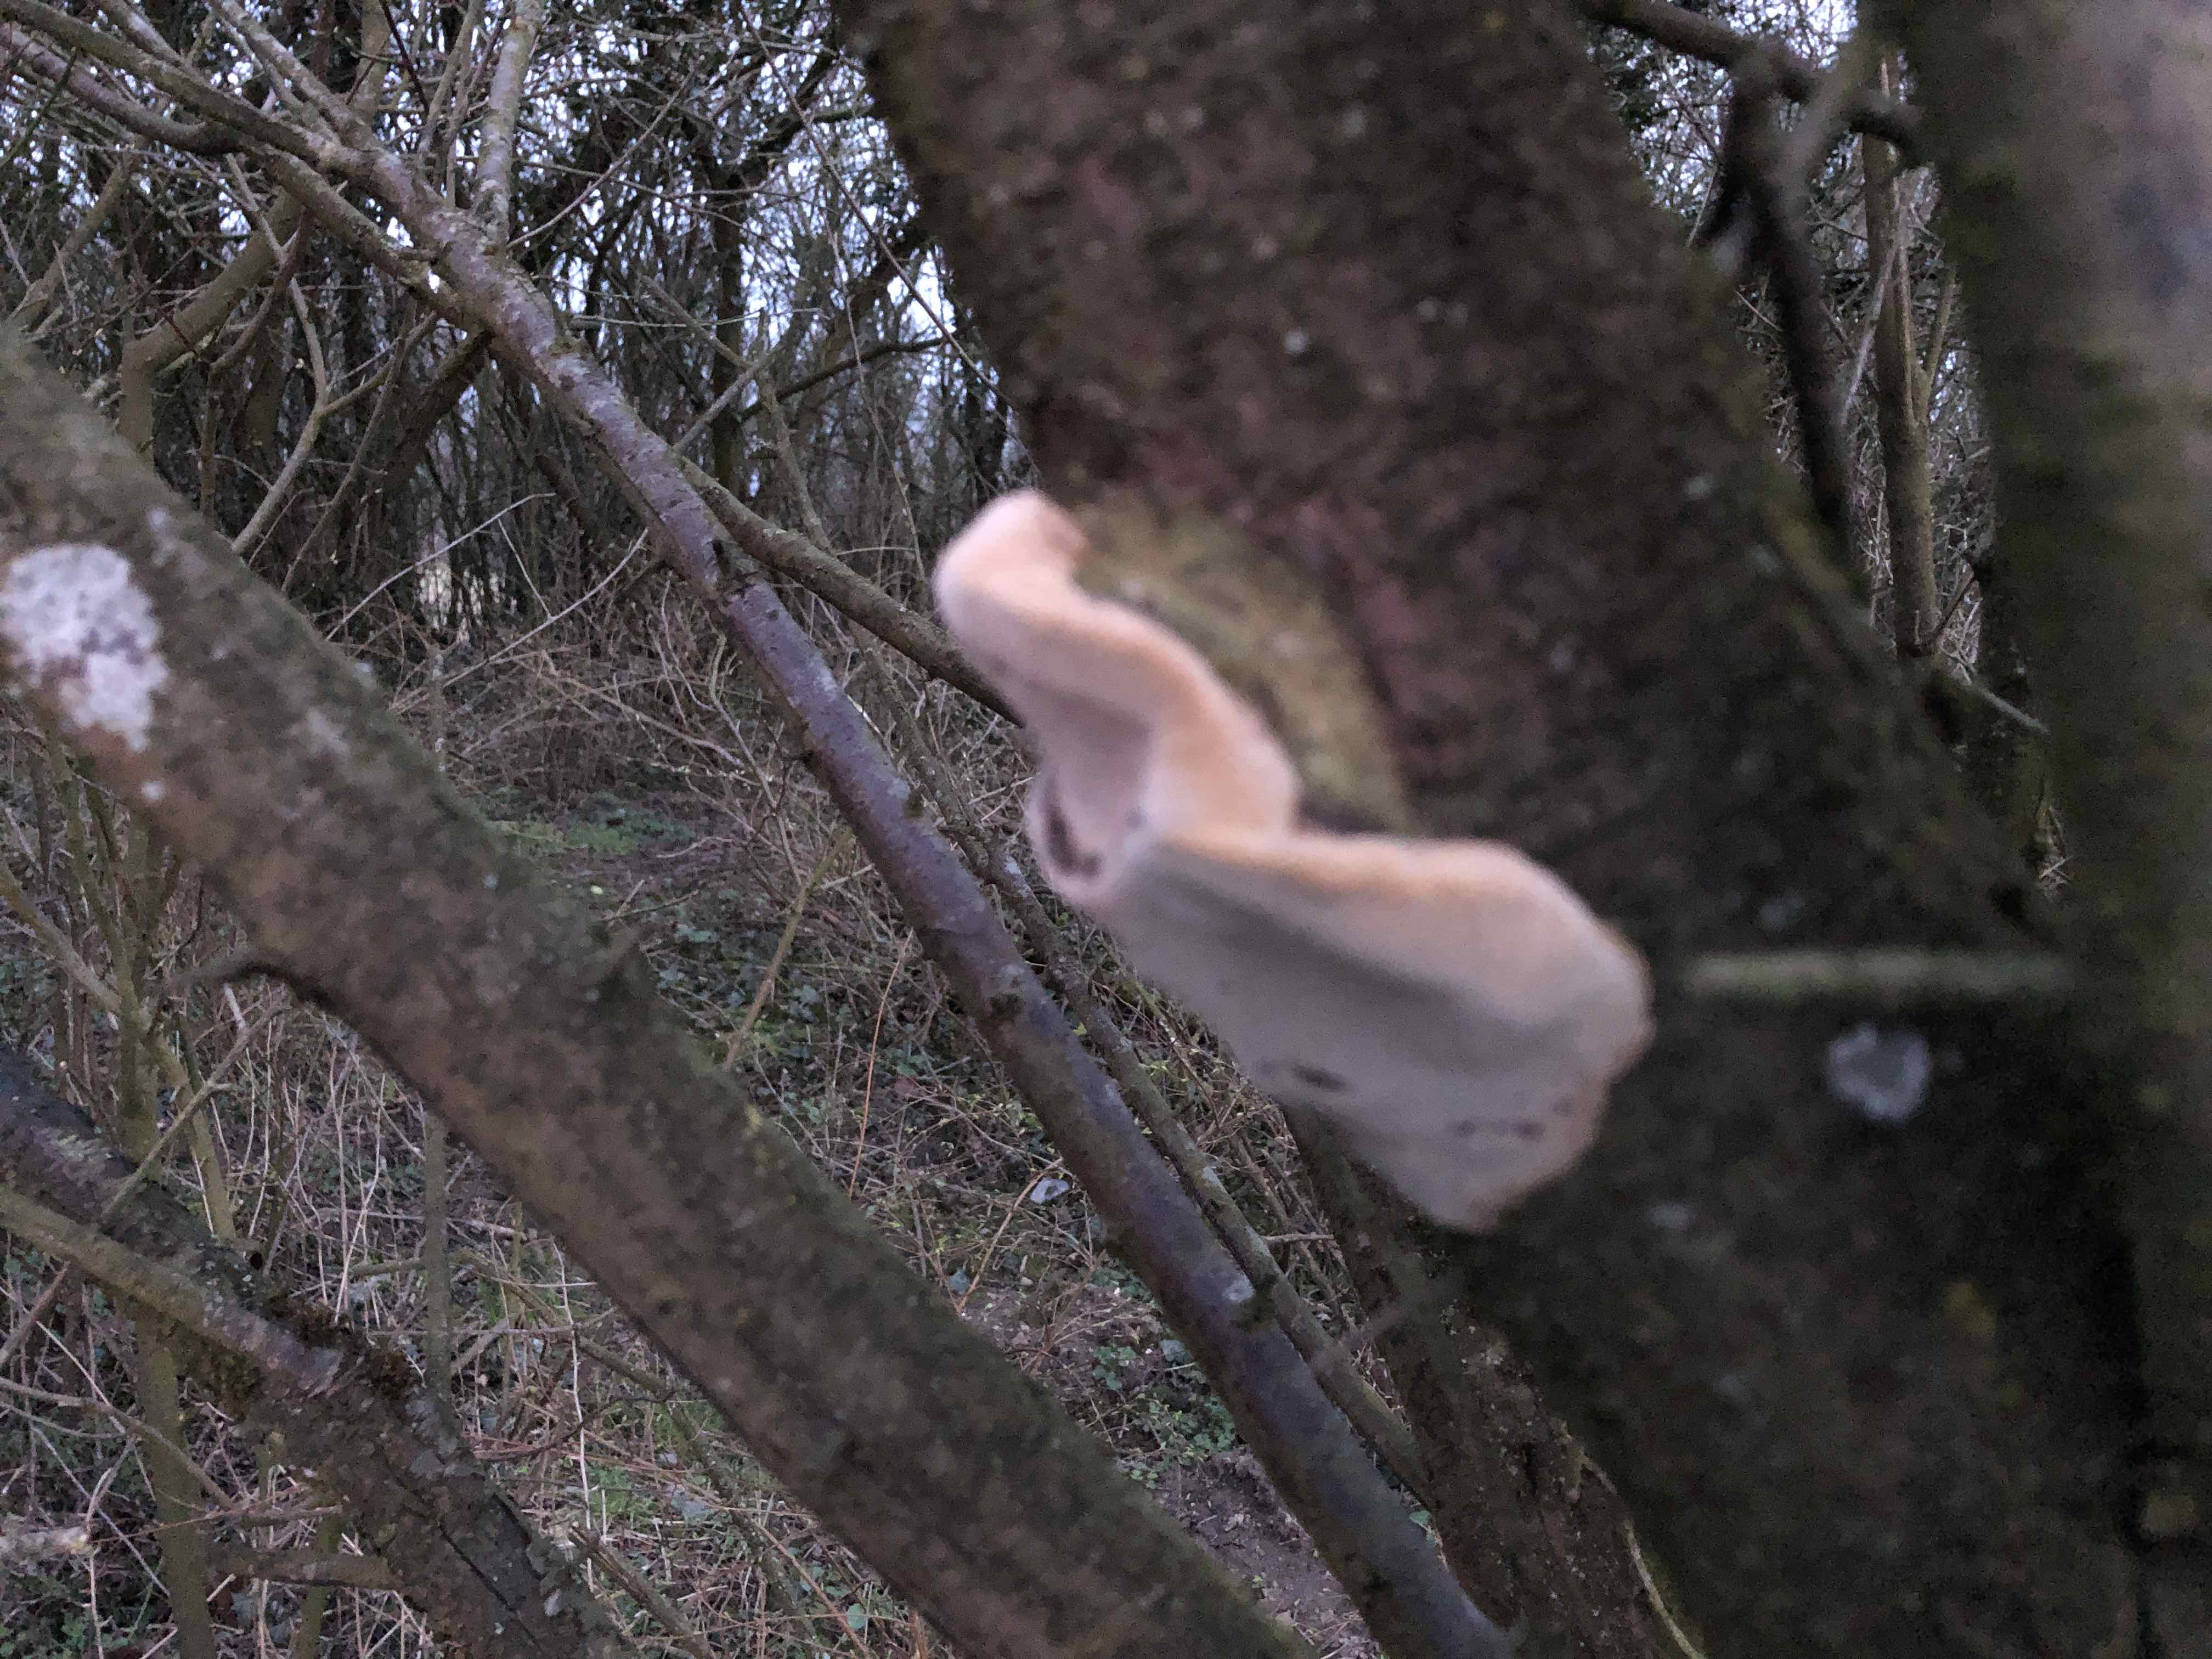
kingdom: Fungi
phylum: Basidiomycota
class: Agaricomycetes
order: Hymenochaetales
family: Hymenochaetaceae
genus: Phellinus
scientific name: Phellinus pomaceus
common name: blomme-ildporesvamp
